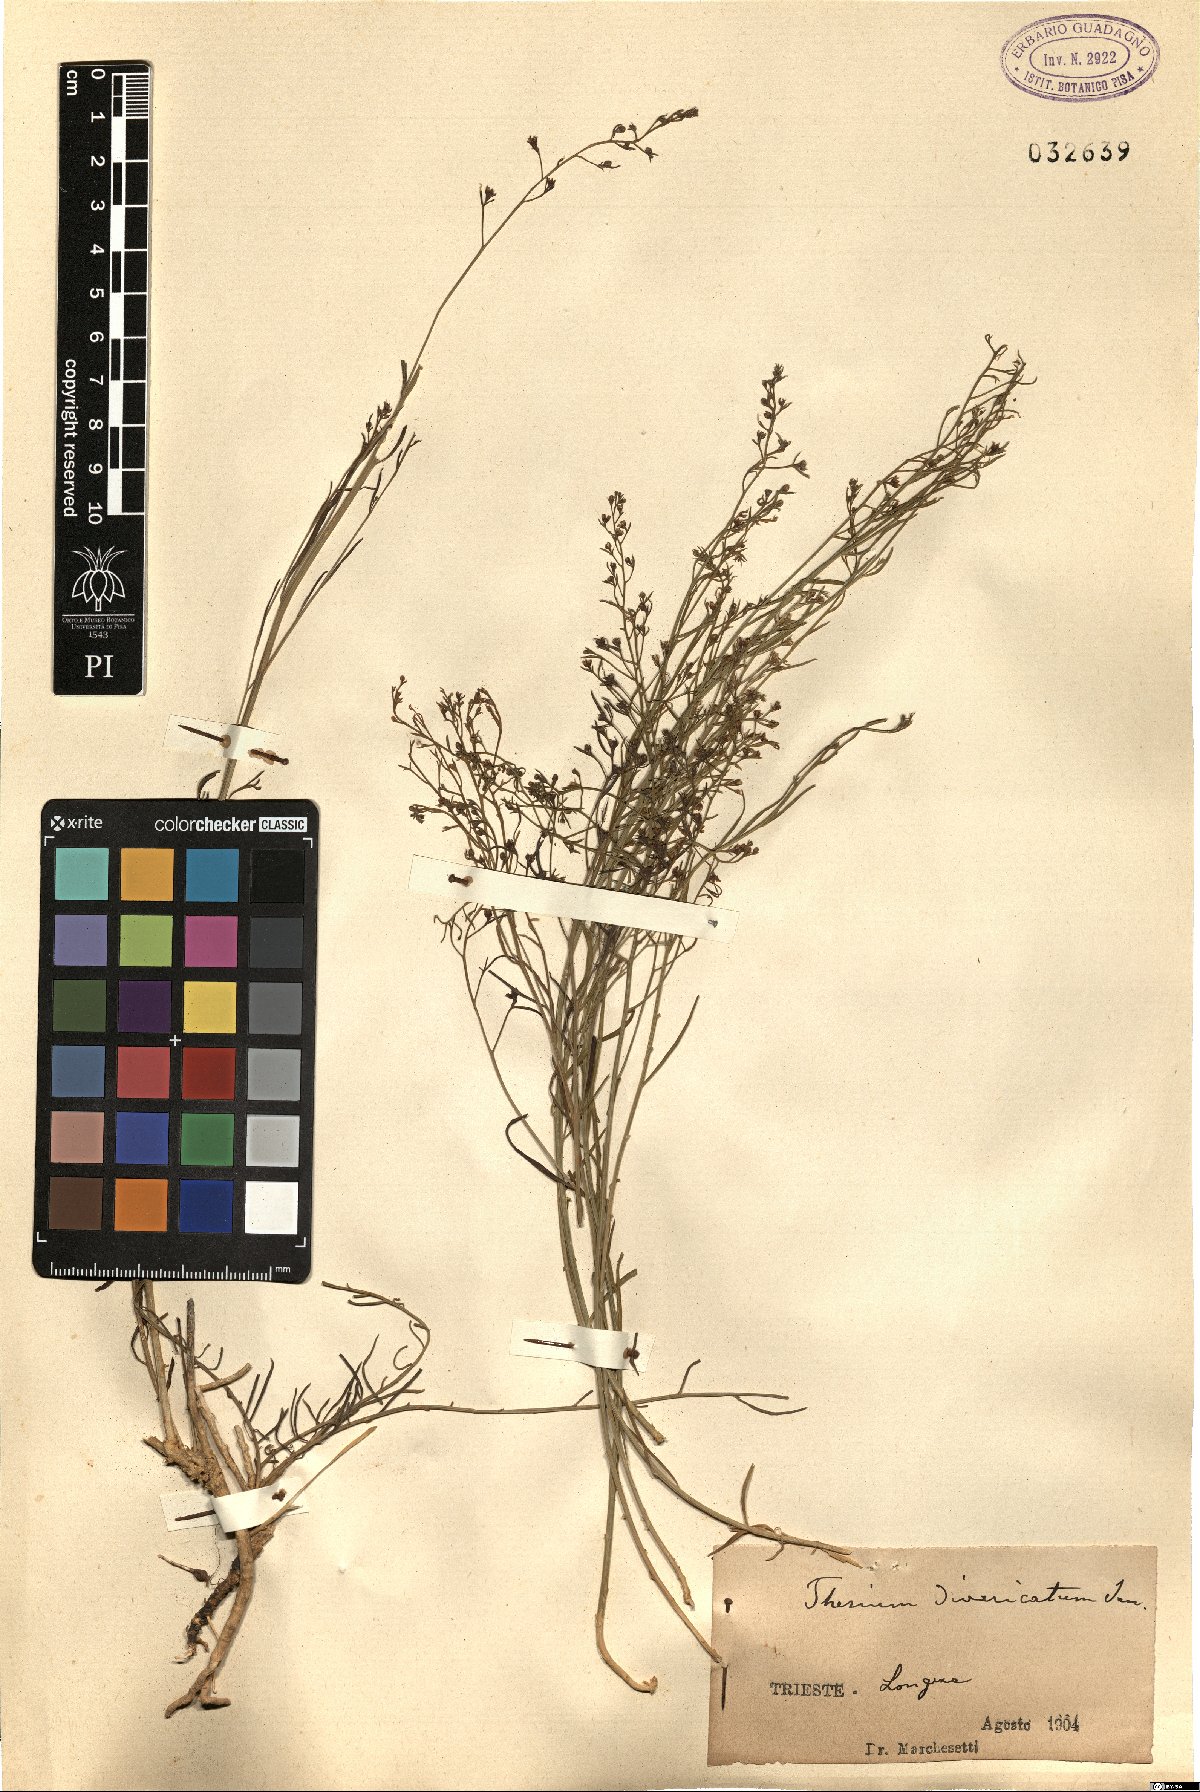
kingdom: Plantae
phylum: Tracheophyta
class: Magnoliopsida
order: Santalales
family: Thesiaceae
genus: Thesium
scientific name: Thesium divaricatum
